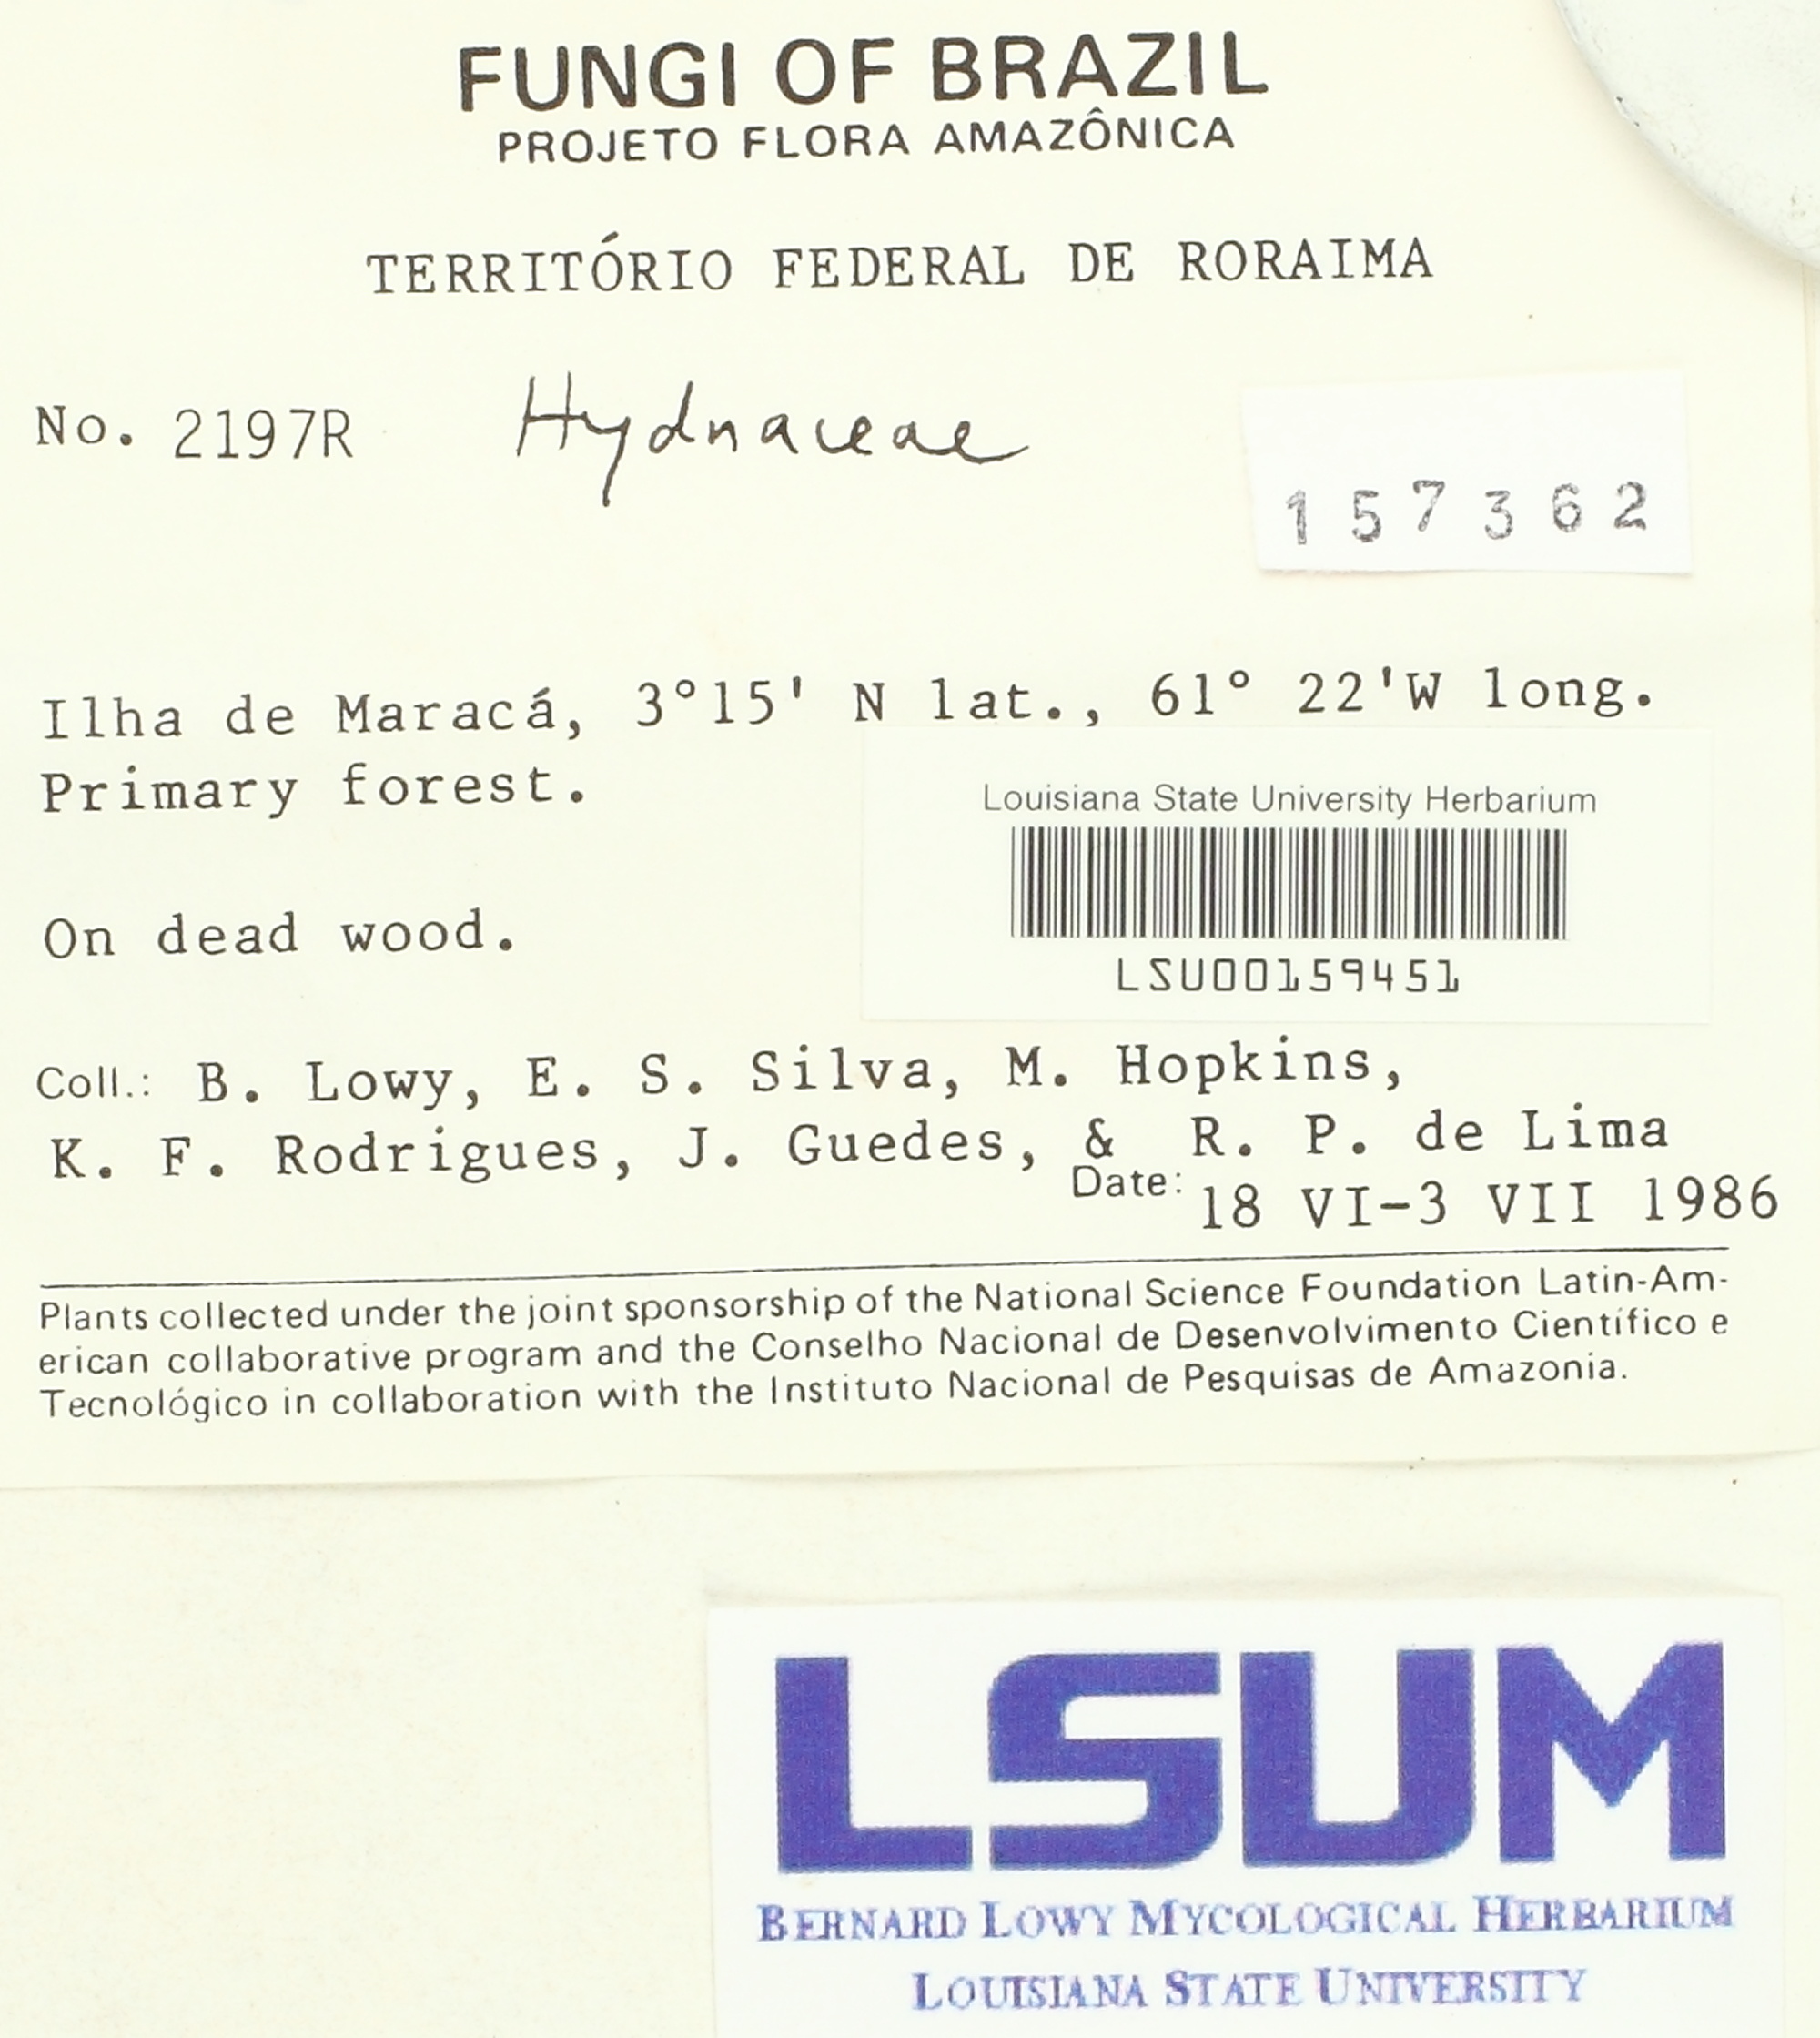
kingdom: Fungi
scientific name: Fungi
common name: Fungi
